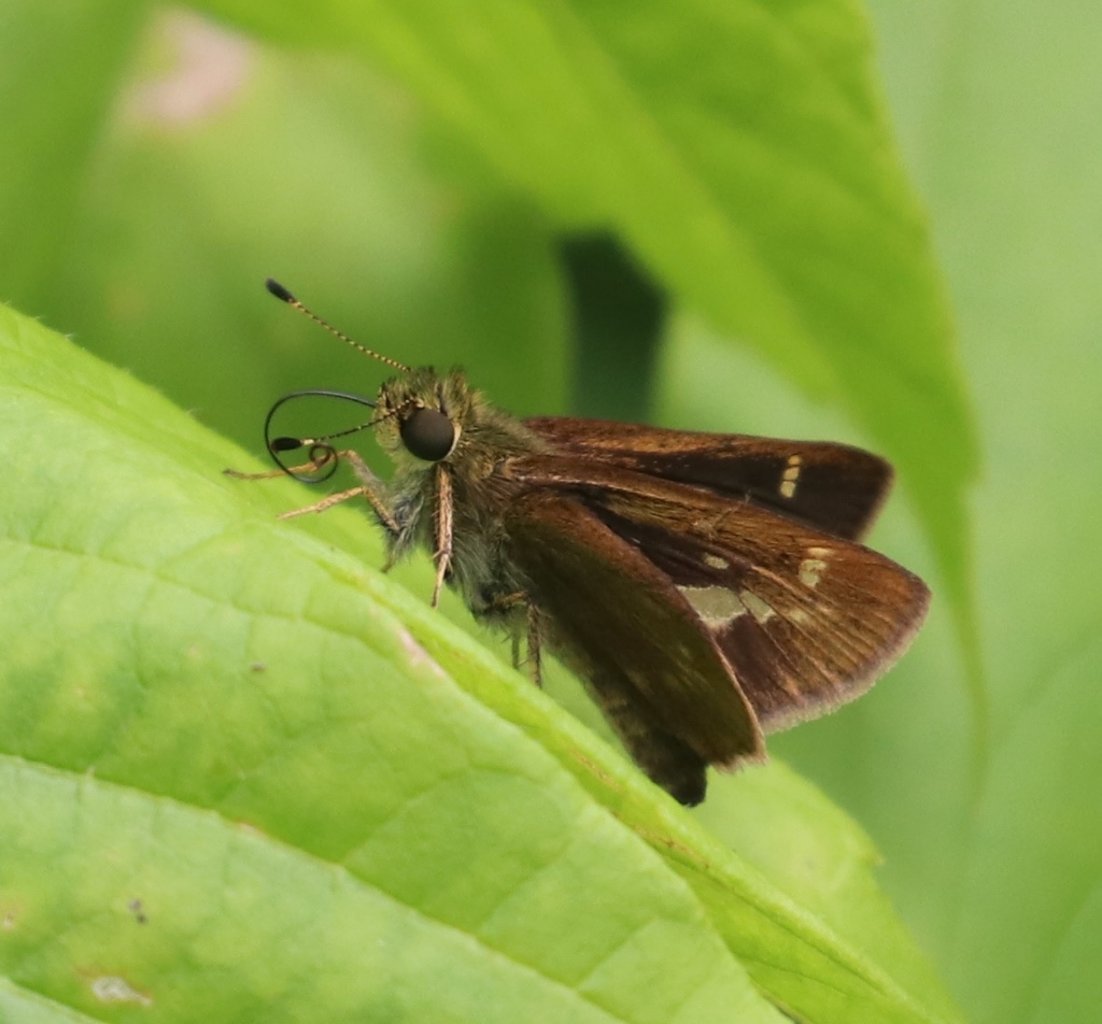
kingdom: Animalia
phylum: Arthropoda
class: Insecta
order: Lepidoptera
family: Hesperiidae
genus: Vernia
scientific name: Vernia verna
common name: Little Glassywing
